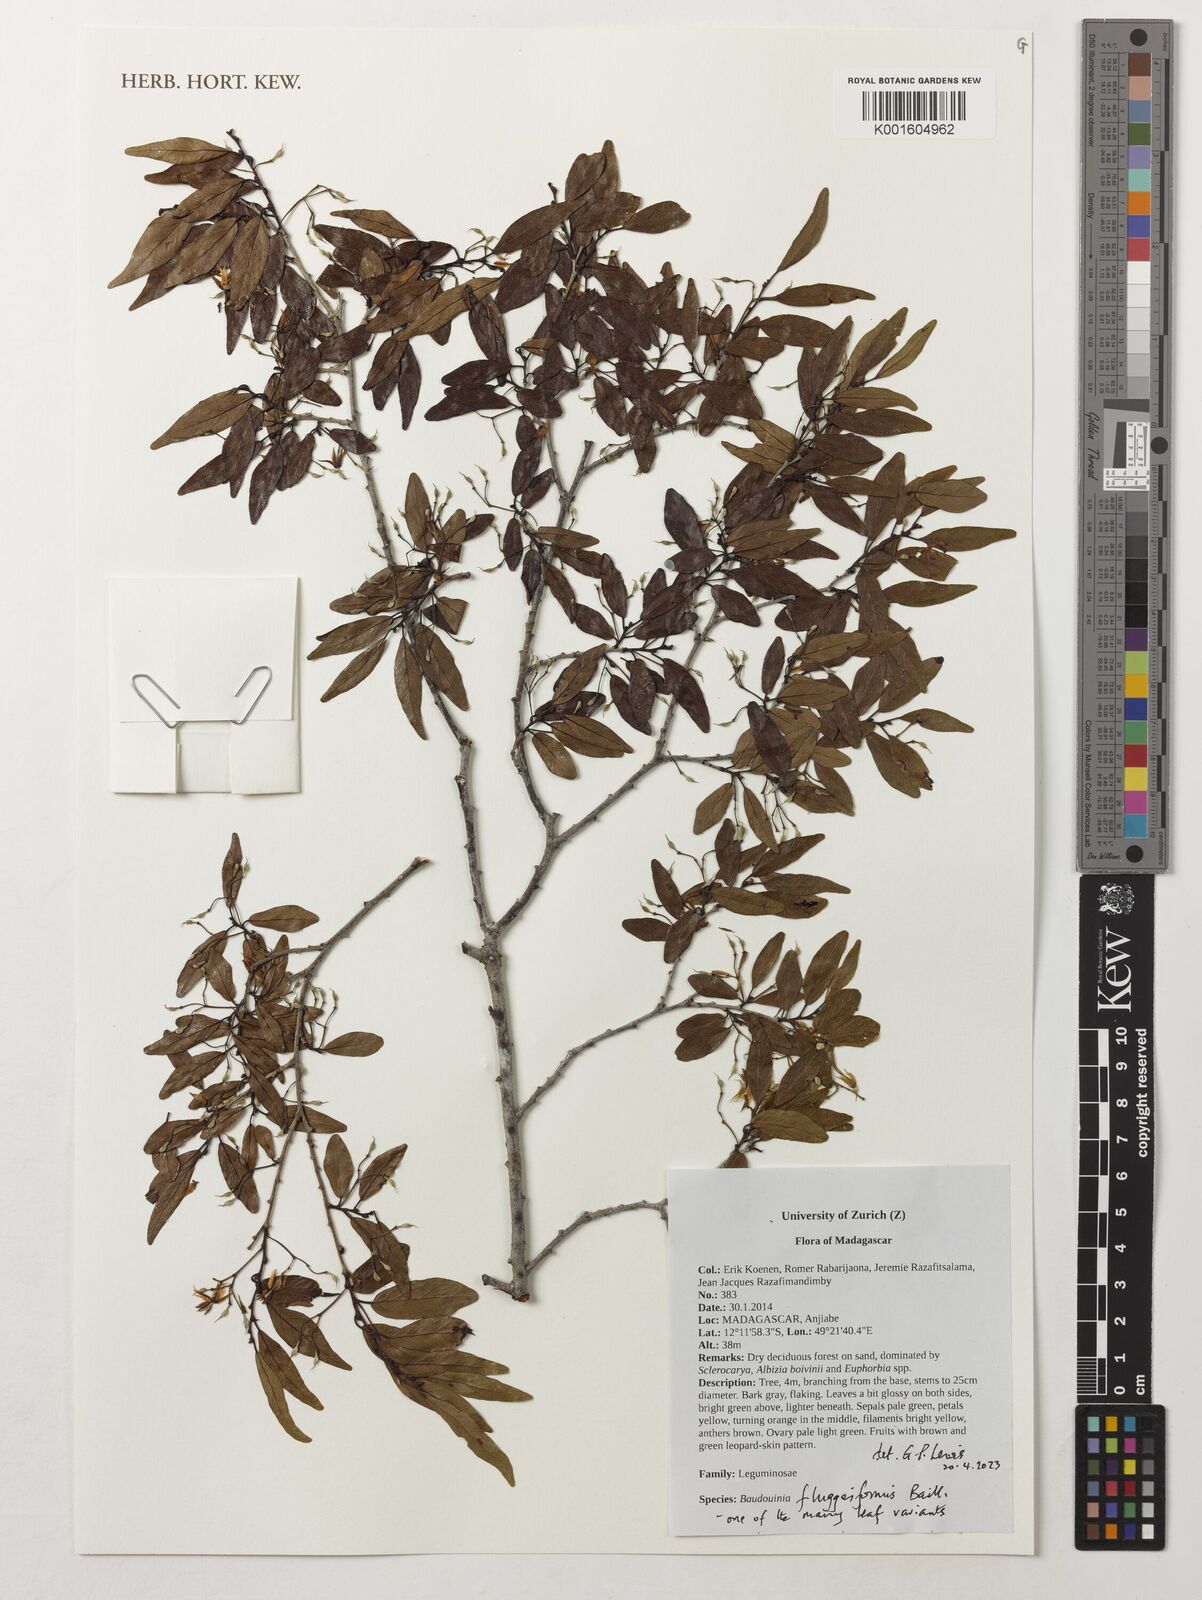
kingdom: Plantae
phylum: Tracheophyta
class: Magnoliopsida
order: Fabales
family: Fabaceae
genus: Baudouinia
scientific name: Baudouinia fluggeiformis
